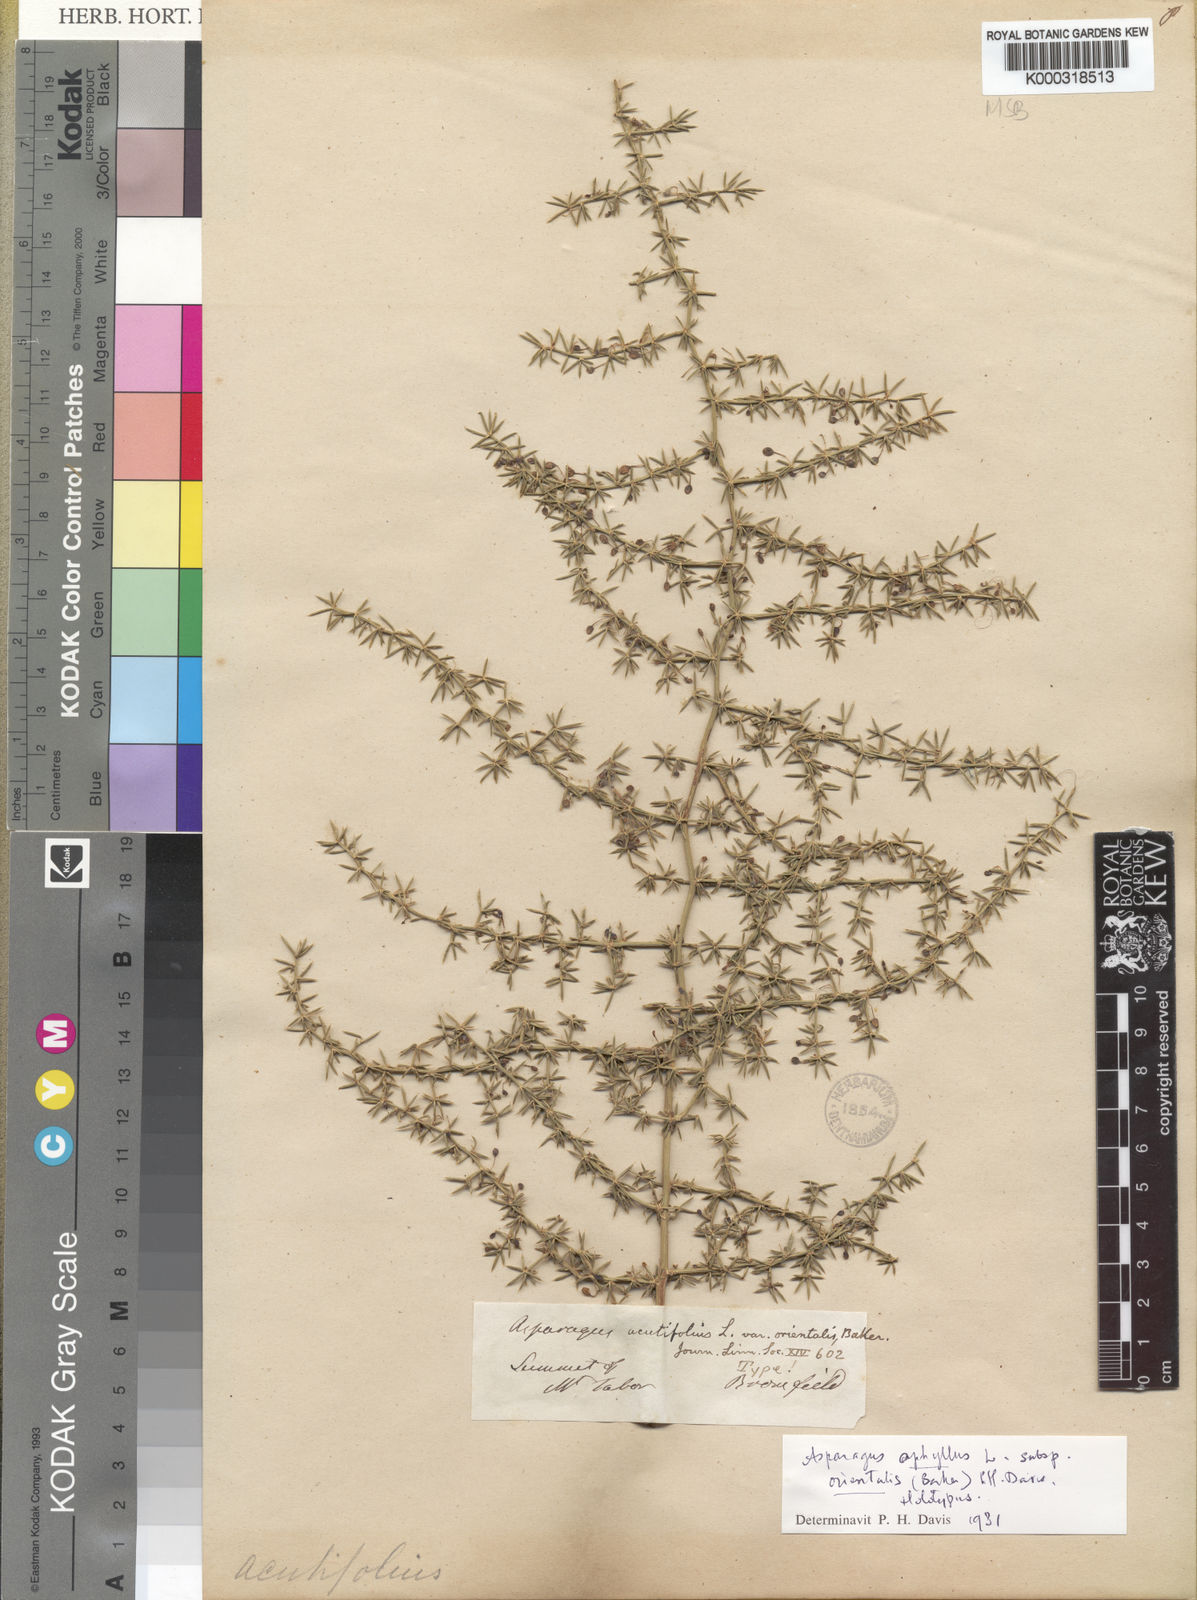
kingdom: Plantae
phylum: Tracheophyta
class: Liliopsida
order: Asparagales
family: Asparagaceae
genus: Asparagus
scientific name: Asparagus aphyllus
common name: Mediterranean asparagus
